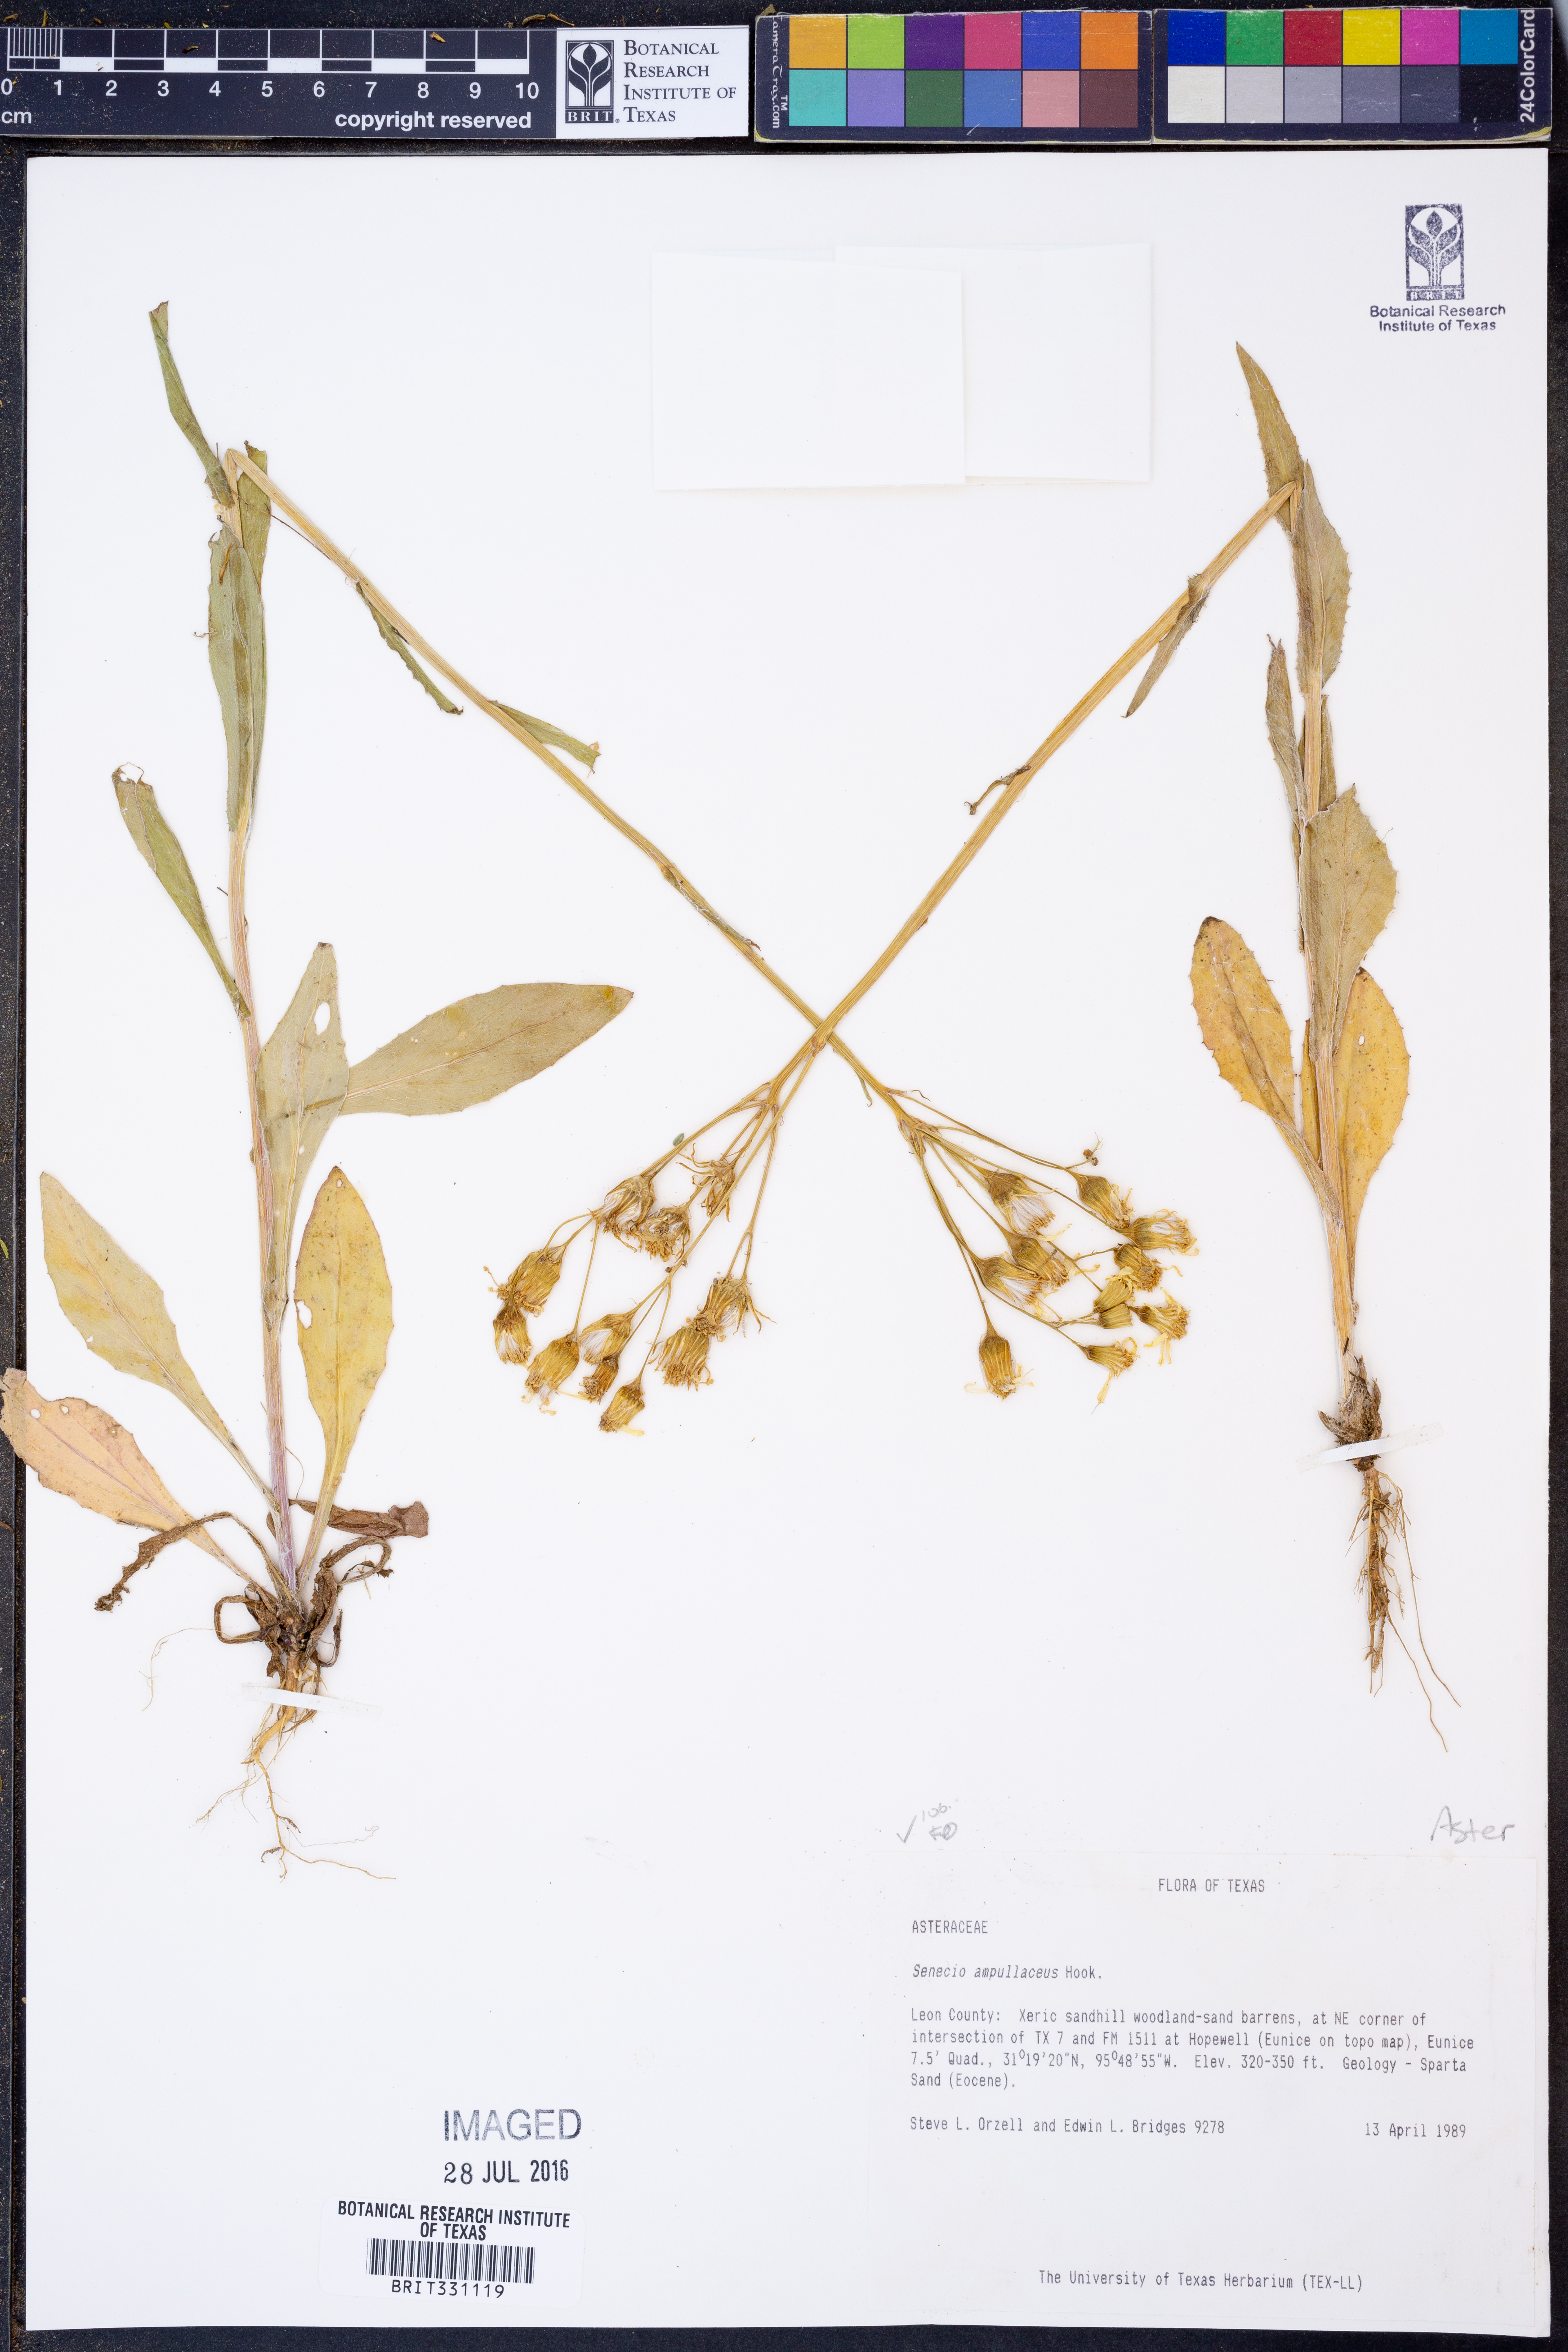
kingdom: Plantae
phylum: Tracheophyta
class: Magnoliopsida
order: Asterales
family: Asteraceae
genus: Senecio
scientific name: Senecio ampullaceus
